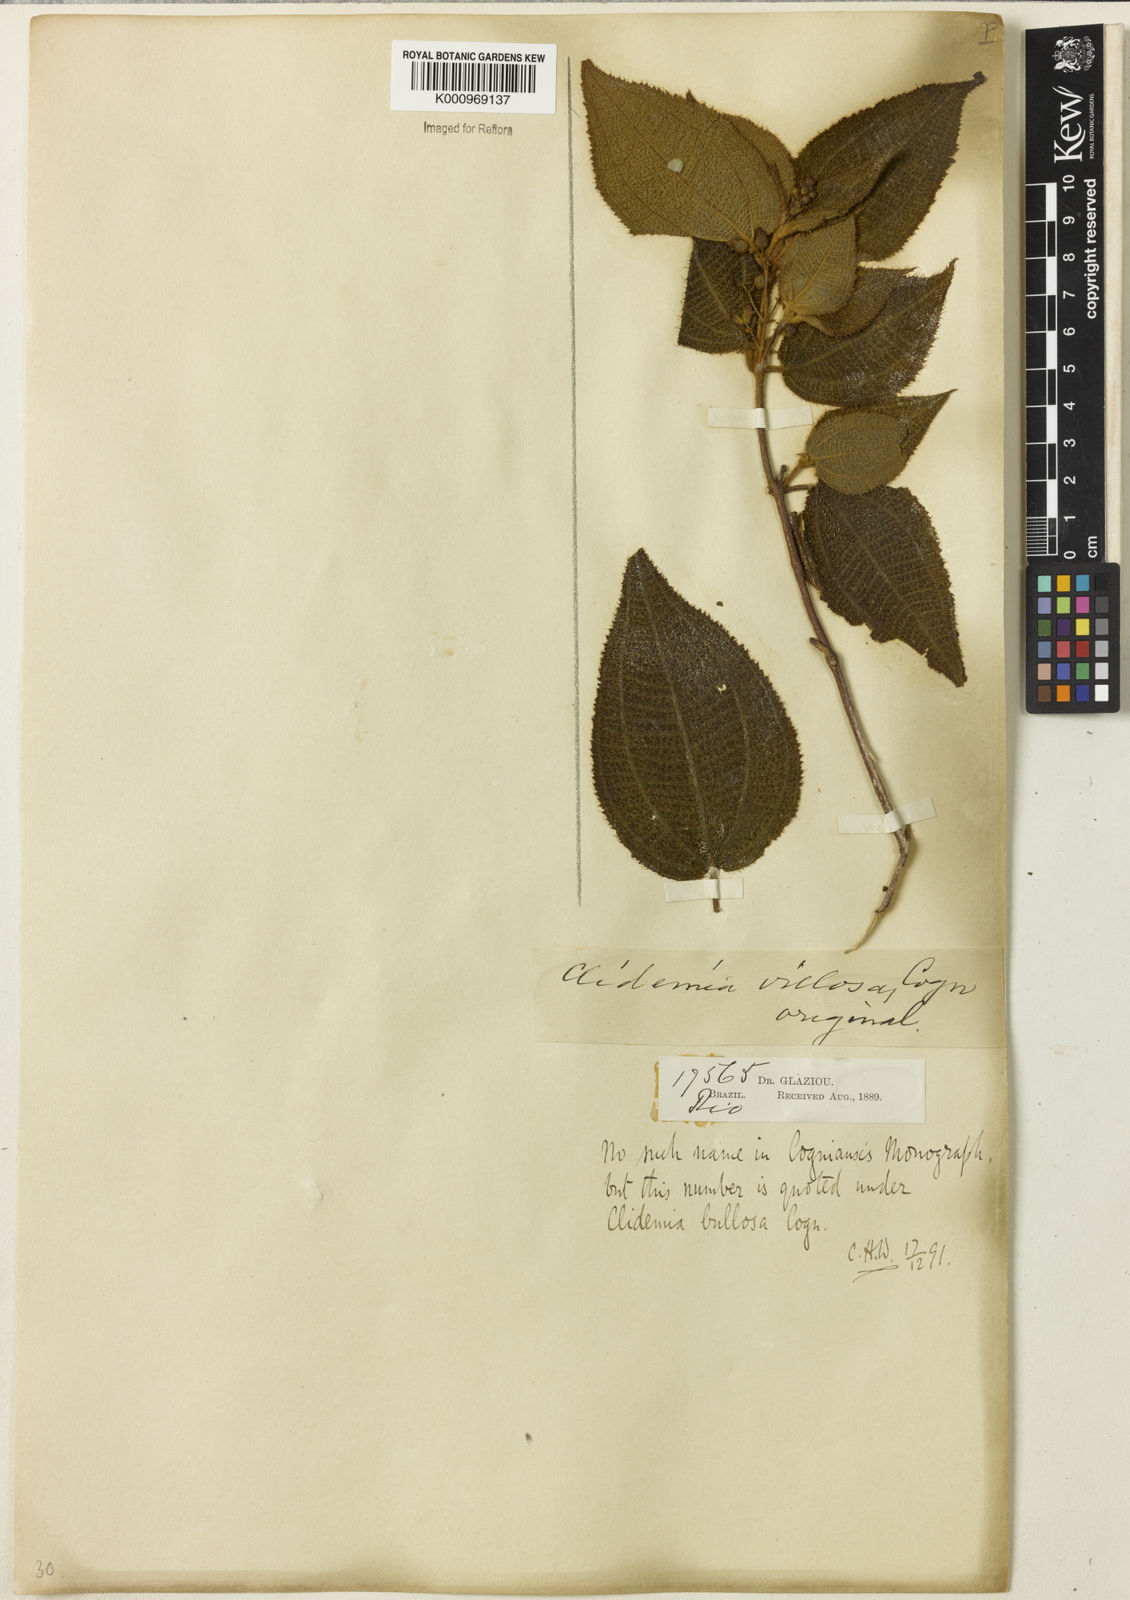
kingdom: Plantae
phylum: Tracheophyta
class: Magnoliopsida
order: Myrtales
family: Melastomataceae
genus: Miconia
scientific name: Miconia biserrata
